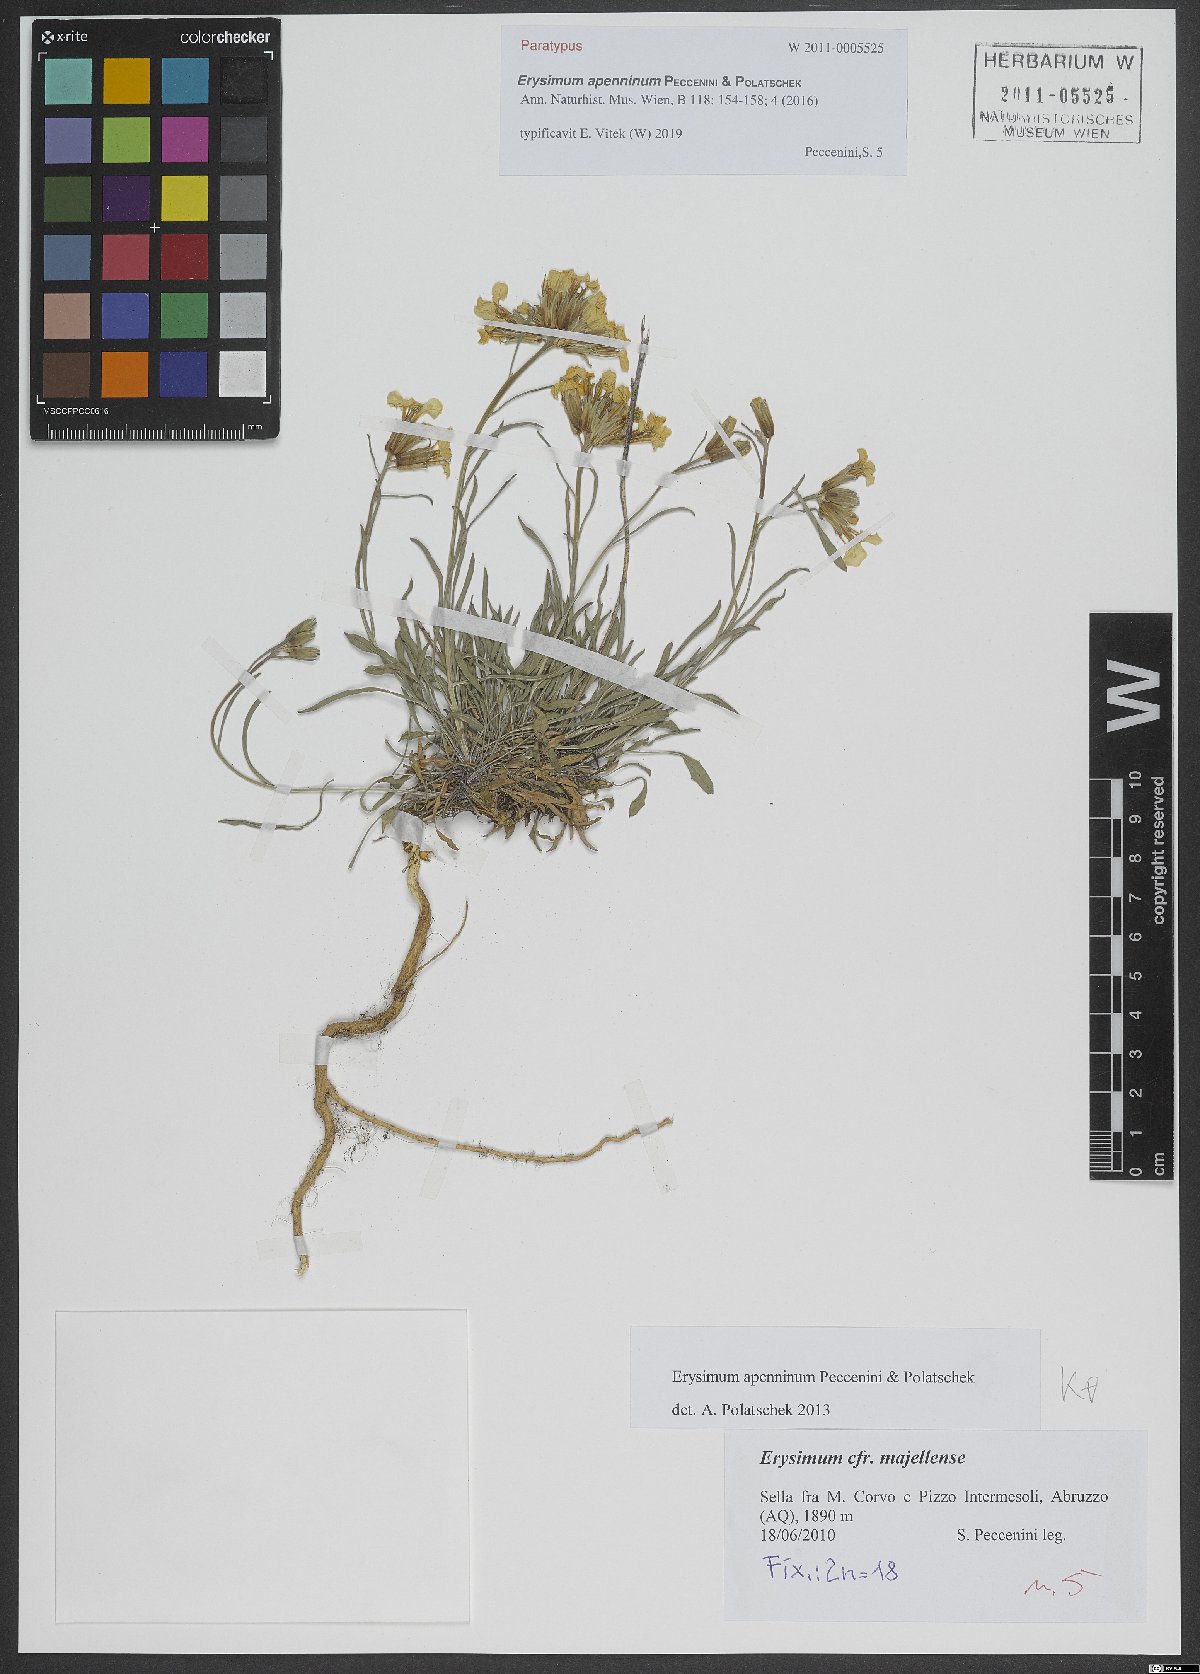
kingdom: Plantae
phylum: Tracheophyta
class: Magnoliopsida
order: Brassicales
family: Brassicaceae
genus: Erysimum
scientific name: Erysimum apenninum
